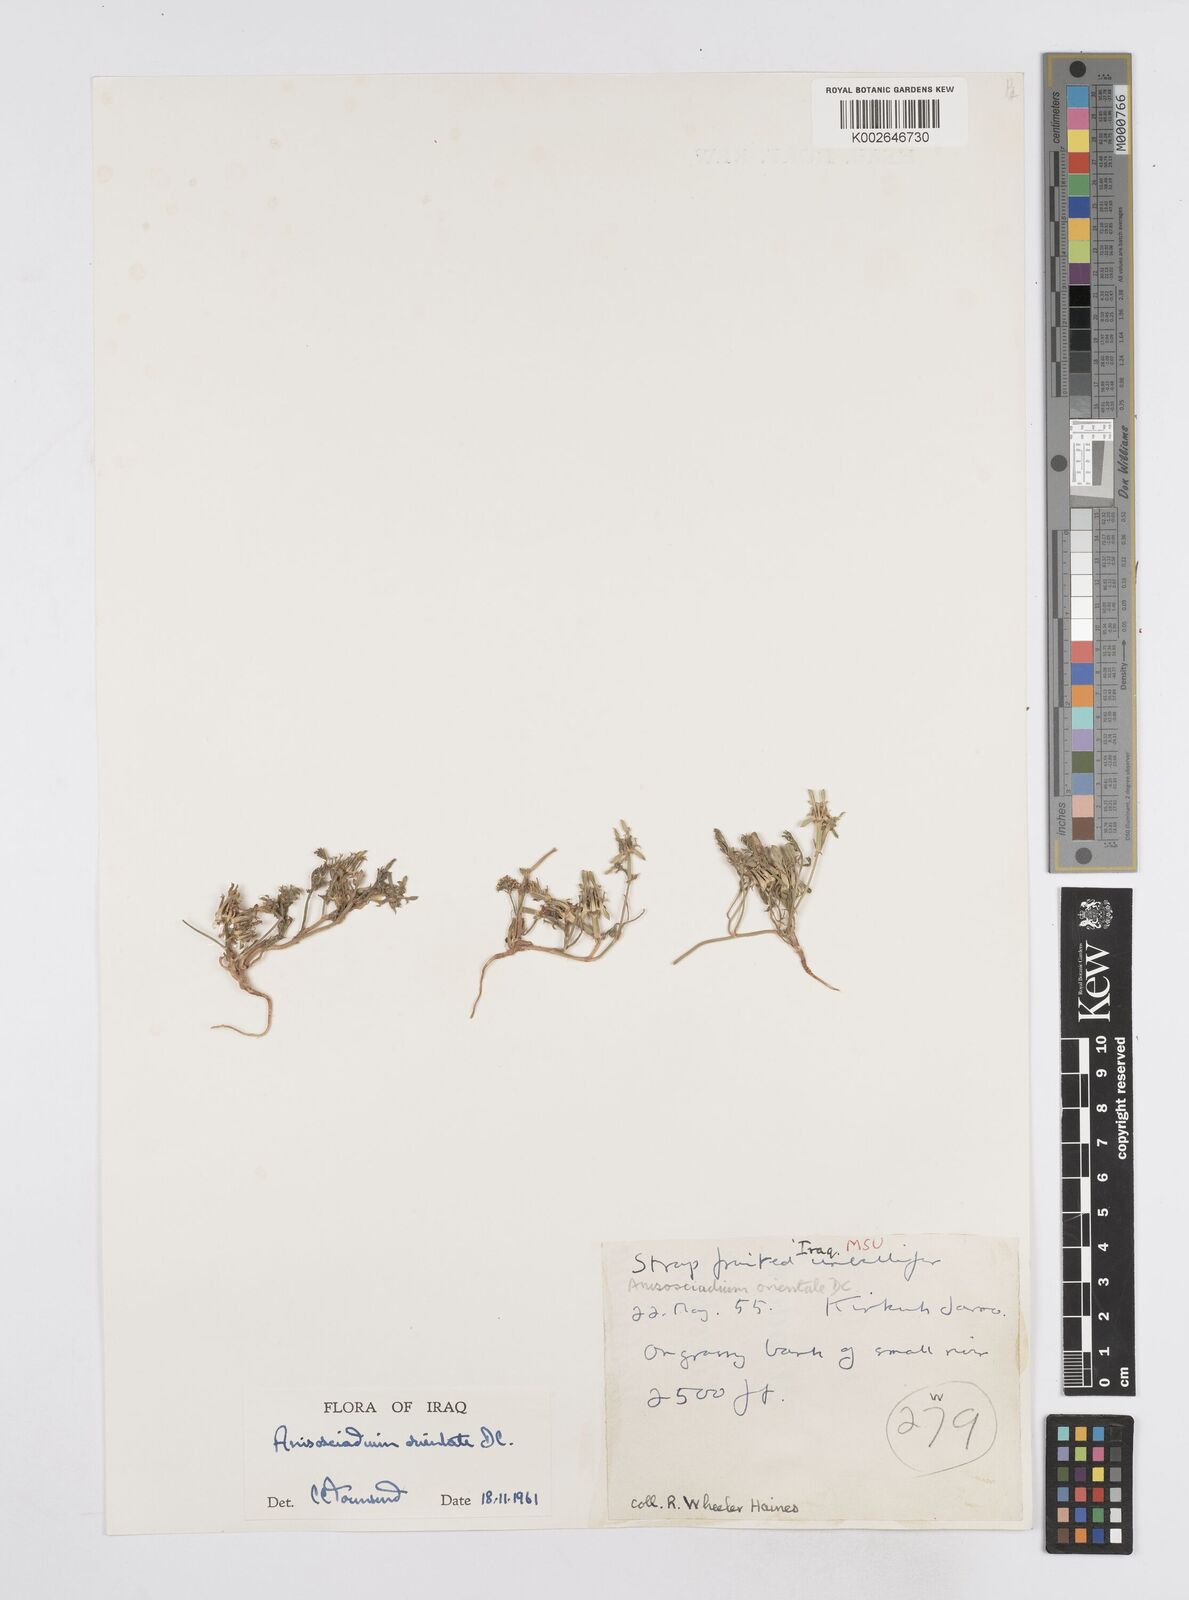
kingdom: Plantae
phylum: Tracheophyta
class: Magnoliopsida
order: Apiales
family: Apiaceae
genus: Anisosciadium
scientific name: Anisosciadium orientale
